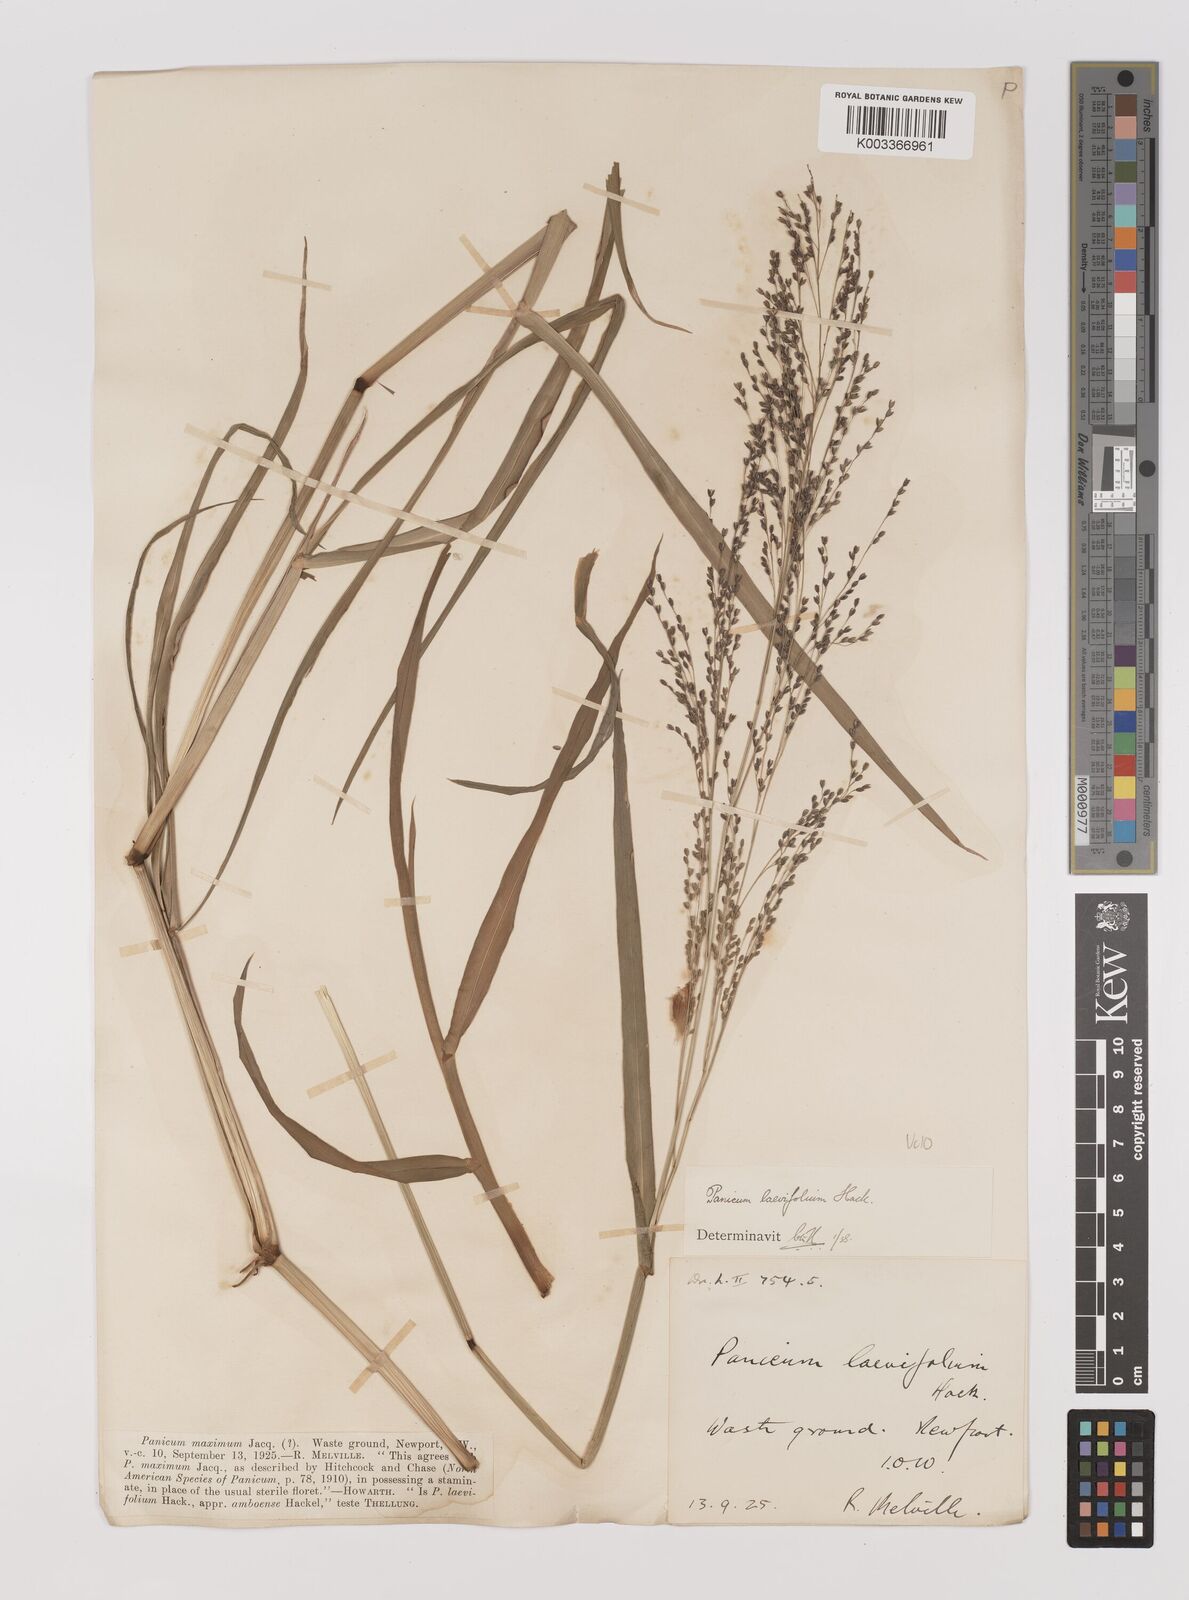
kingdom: Plantae
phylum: Tracheophyta
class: Liliopsida
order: Poales
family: Poaceae
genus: Panicum
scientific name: Panicum schinzii
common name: Sweet grass
